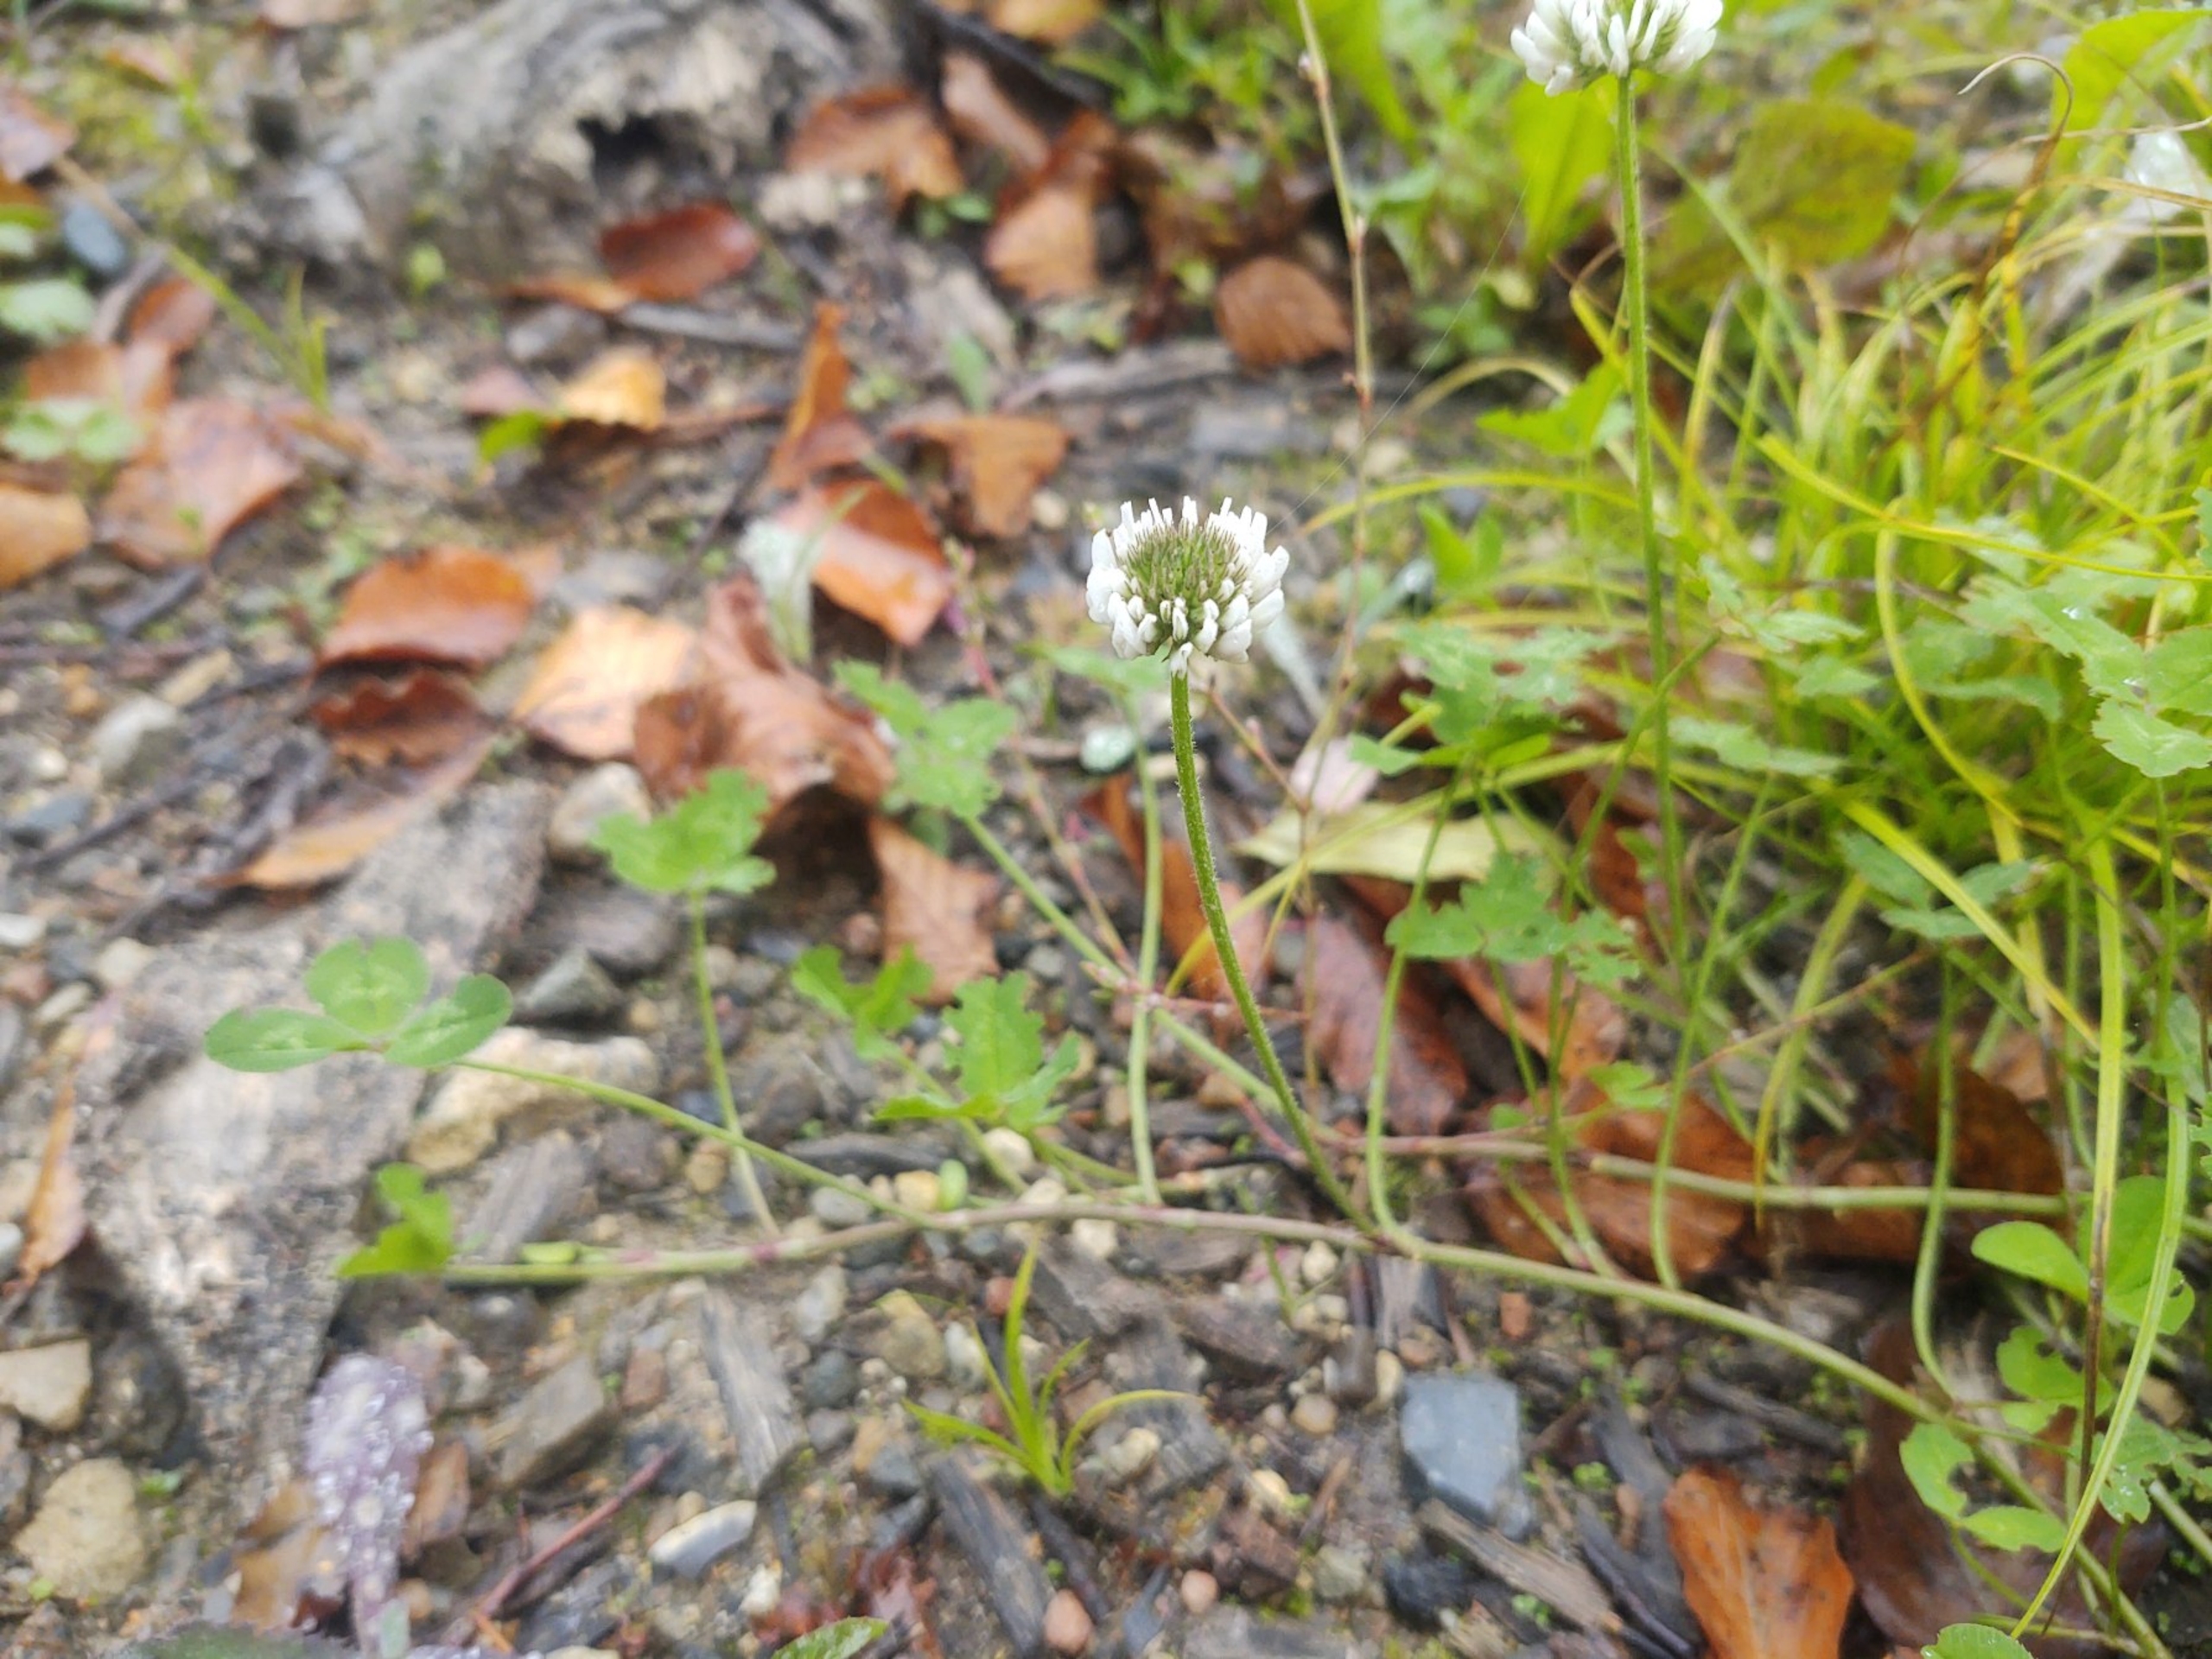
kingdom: Plantae
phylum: Tracheophyta
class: Magnoliopsida
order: Fabales
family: Fabaceae
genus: Trifolium
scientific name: Trifolium repens
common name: Hvid-kløver
